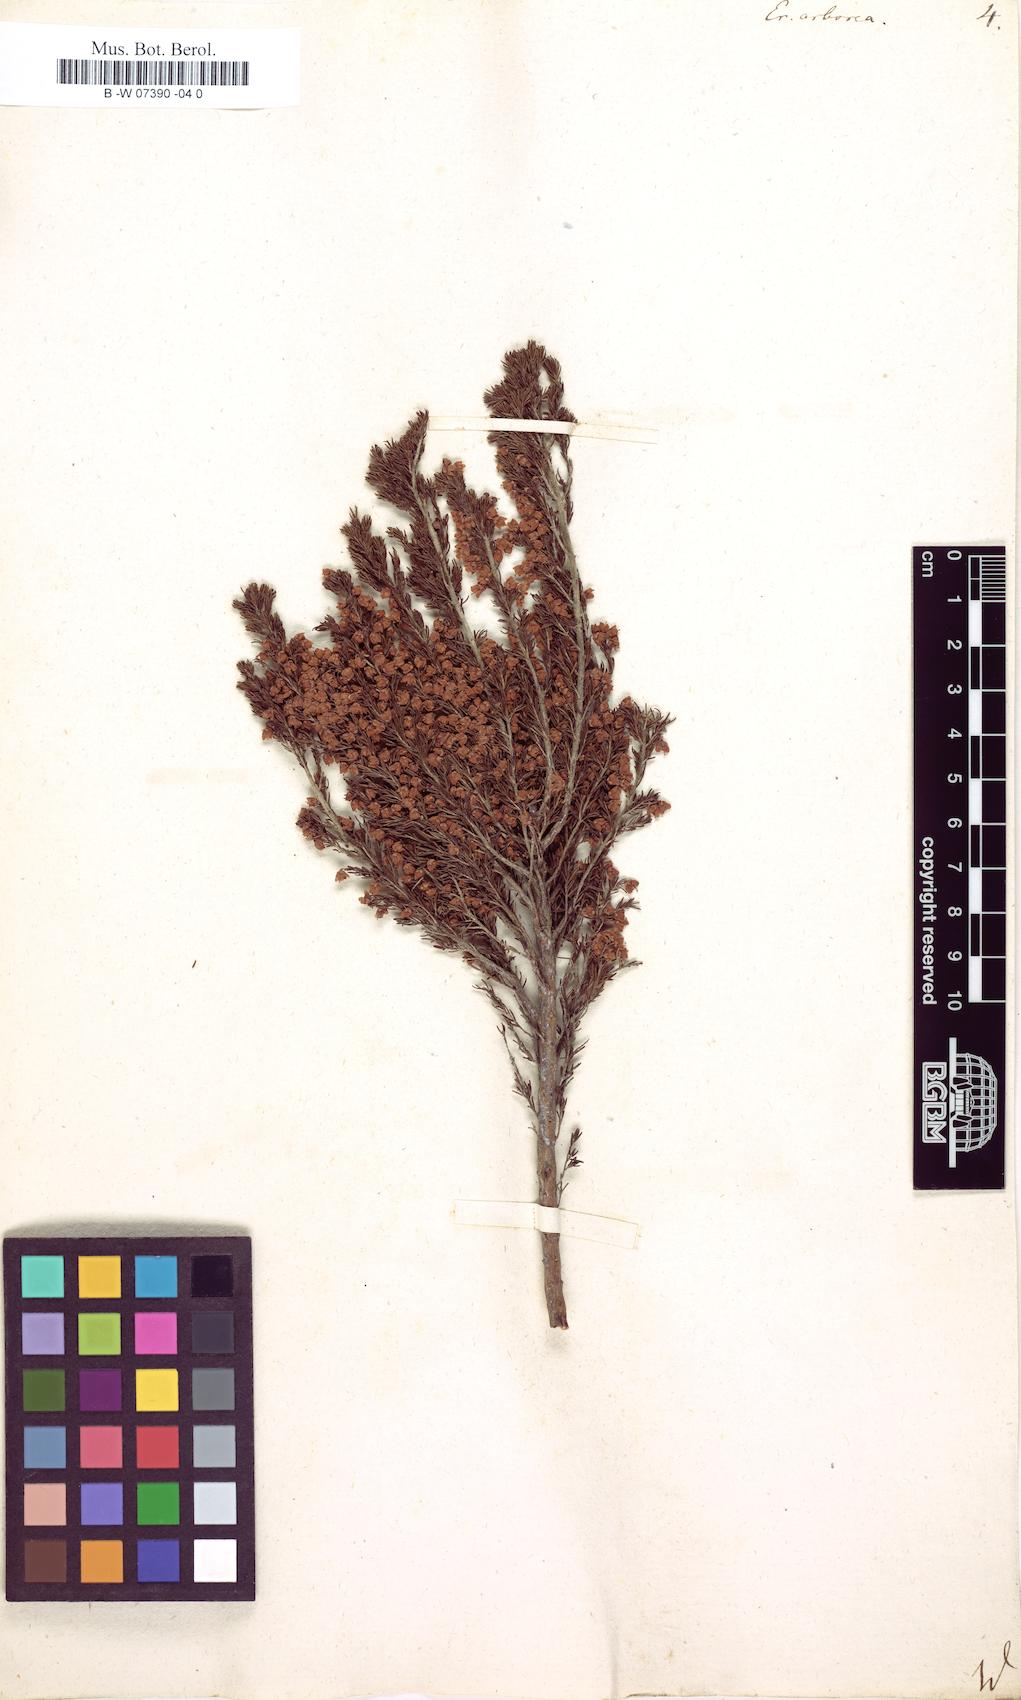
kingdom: Plantae
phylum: Tracheophyta
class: Magnoliopsida
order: Ericales
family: Ericaceae
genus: Erica
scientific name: Erica arborea
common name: Tree heath
